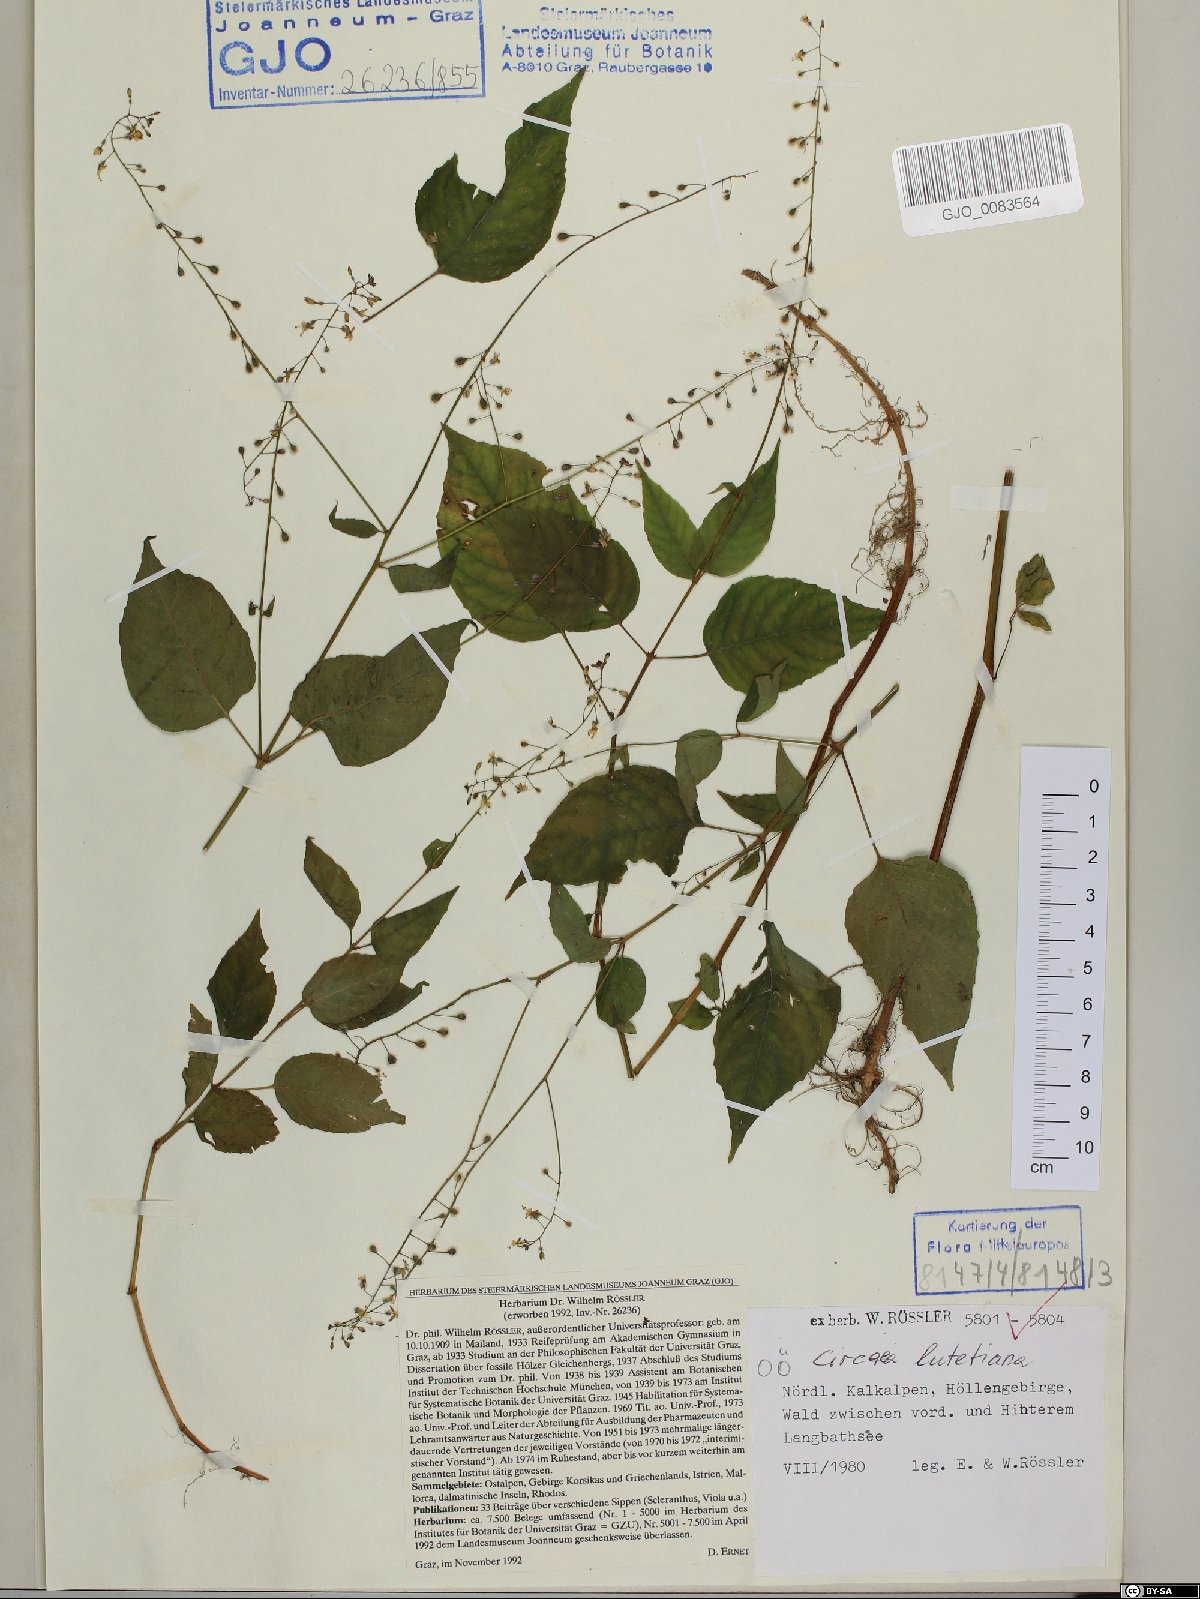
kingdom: Plantae
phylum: Tracheophyta
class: Magnoliopsida
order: Myrtales
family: Onagraceae
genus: Circaea
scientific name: Circaea lutetiana
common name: Enchanter's-nightshade
